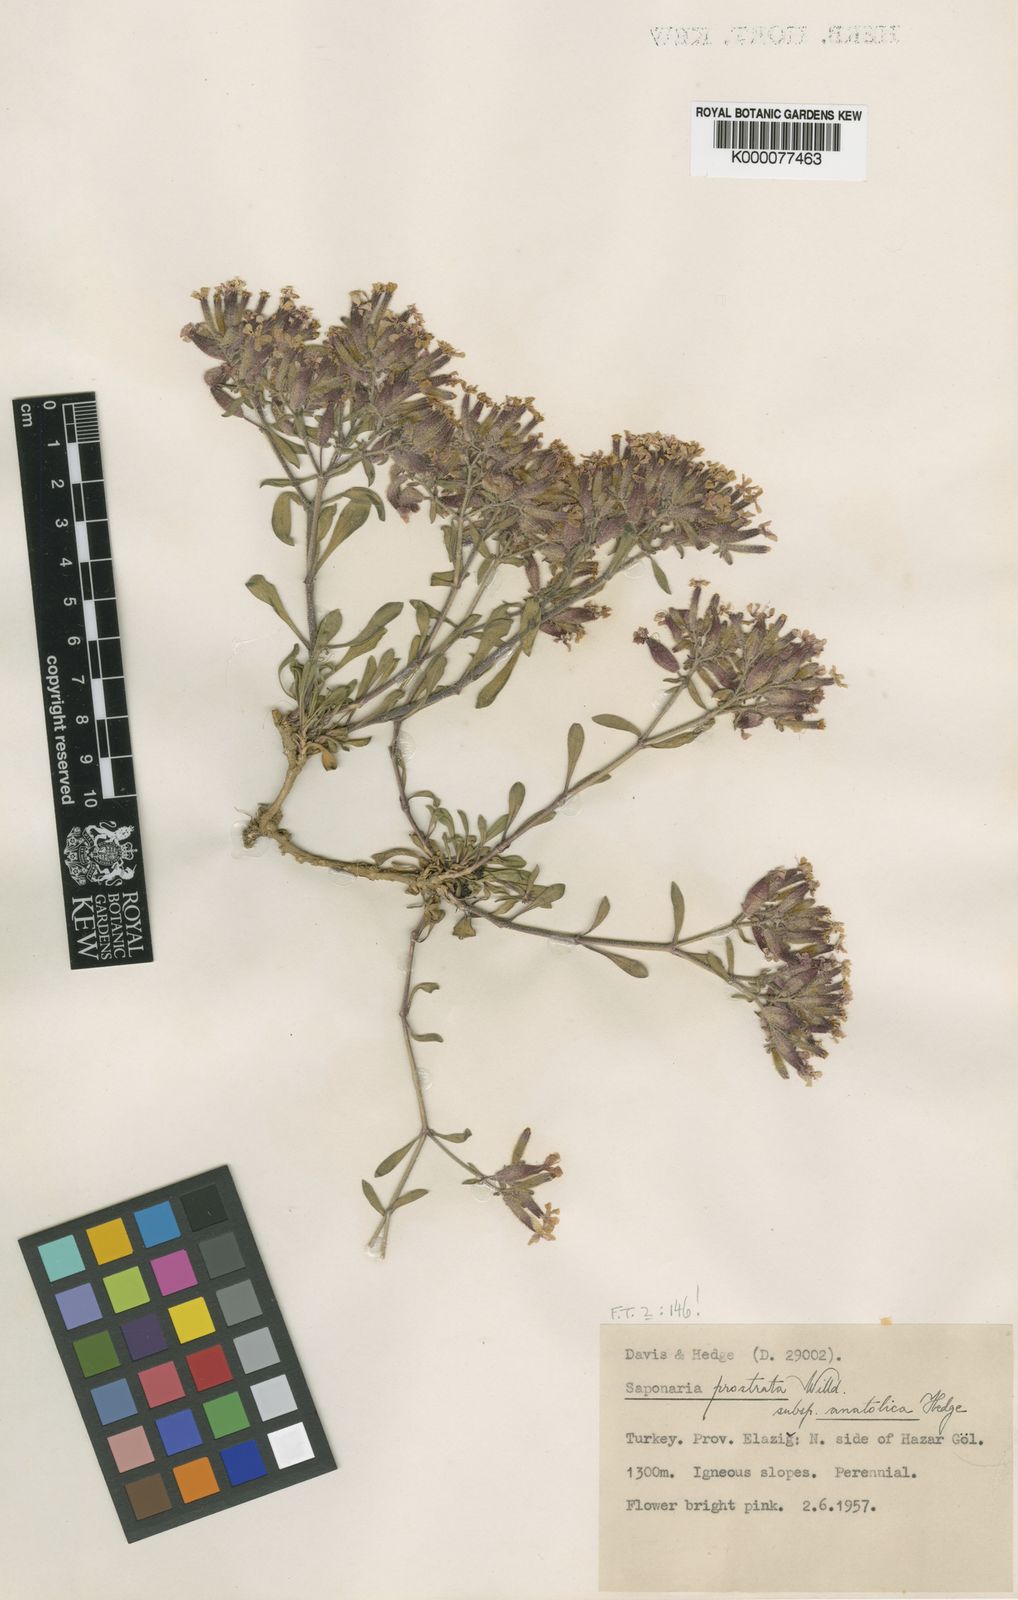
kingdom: Plantae
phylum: Tracheophyta
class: Magnoliopsida
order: Caryophyllales
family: Caryophyllaceae
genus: Saponaria
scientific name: Saponaria prostrata
